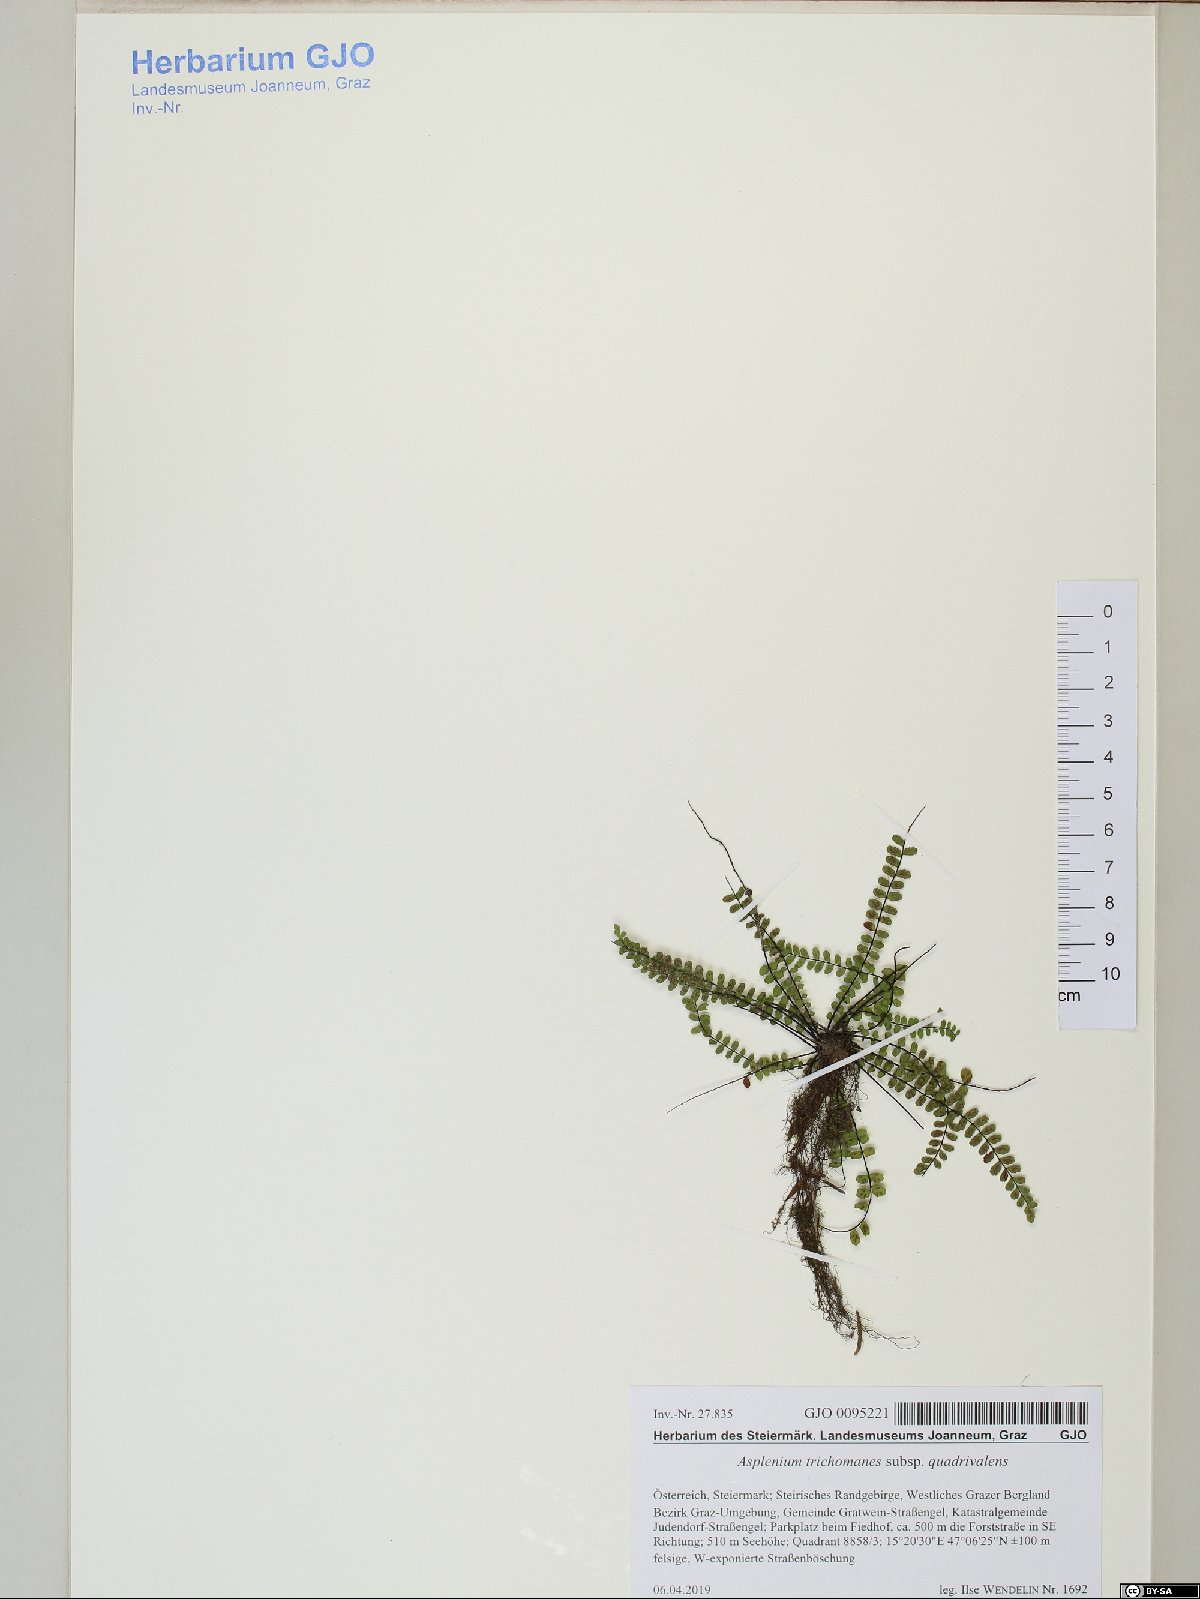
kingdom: Plantae
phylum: Tracheophyta
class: Polypodiopsida
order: Polypodiales
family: Aspleniaceae
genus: Asplenium
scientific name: Asplenium quadrivalens
